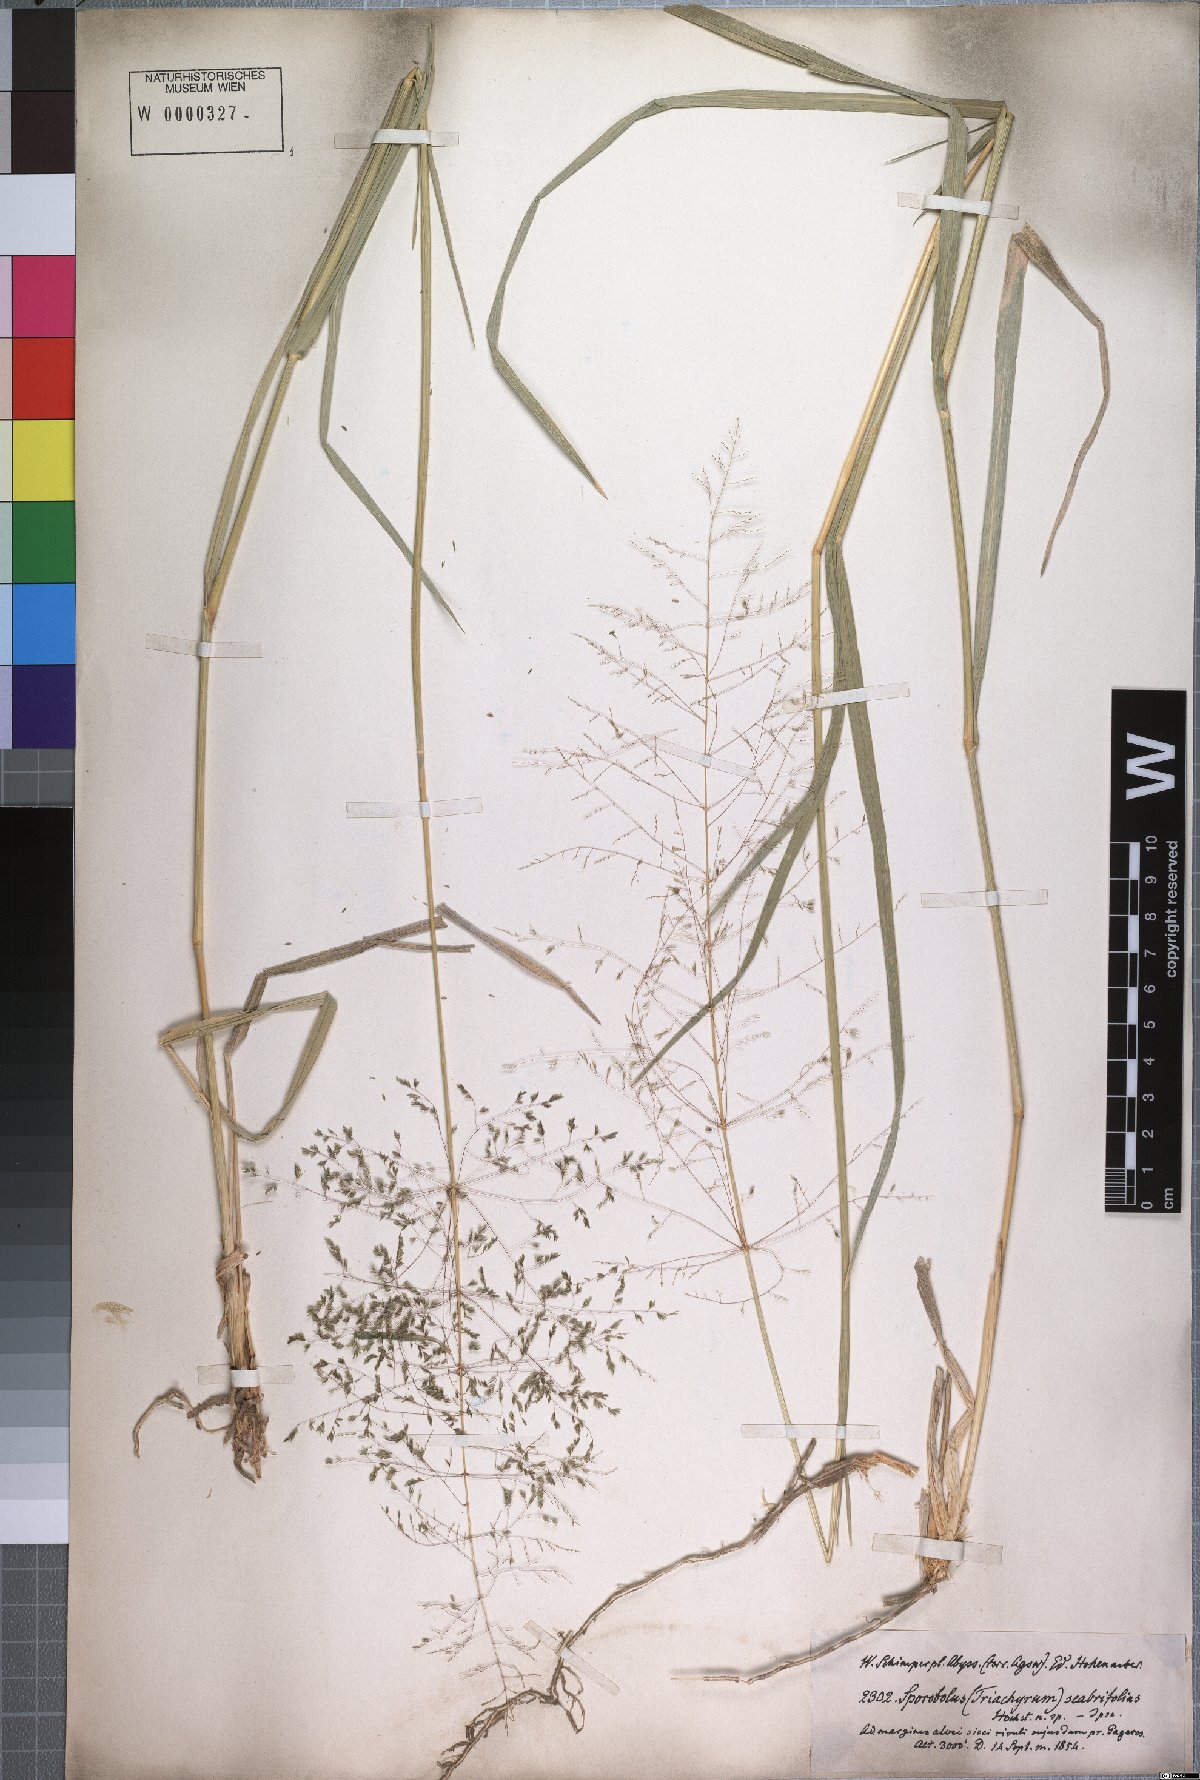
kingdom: Plantae
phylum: Tracheophyta
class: Liliopsida
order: Poales
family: Poaceae
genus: Sporobolus
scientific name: Sporobolus ioclados
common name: Pan dropseed
